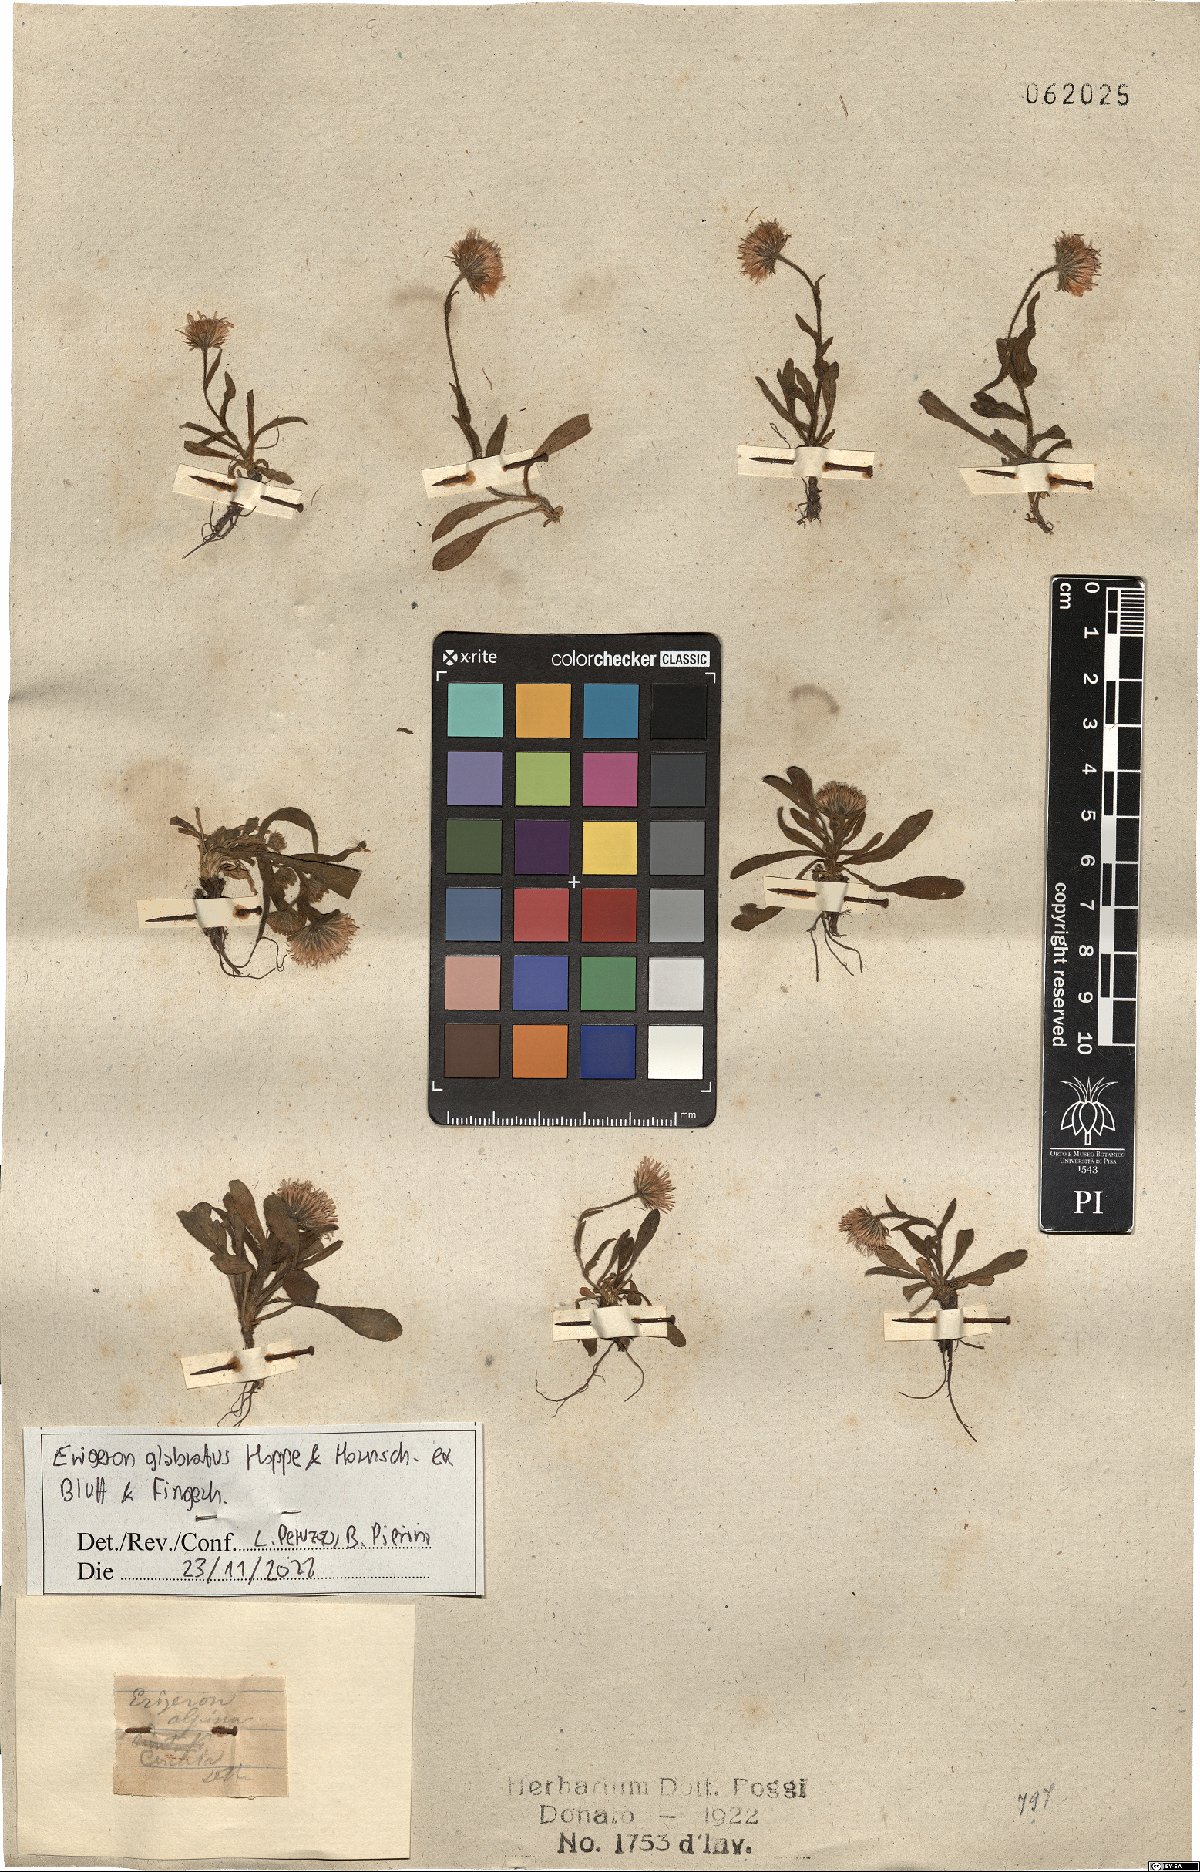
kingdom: Plantae
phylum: Tracheophyta
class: Magnoliopsida
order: Asterales
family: Asteraceae
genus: Erigeron
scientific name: Erigeron glabratus
